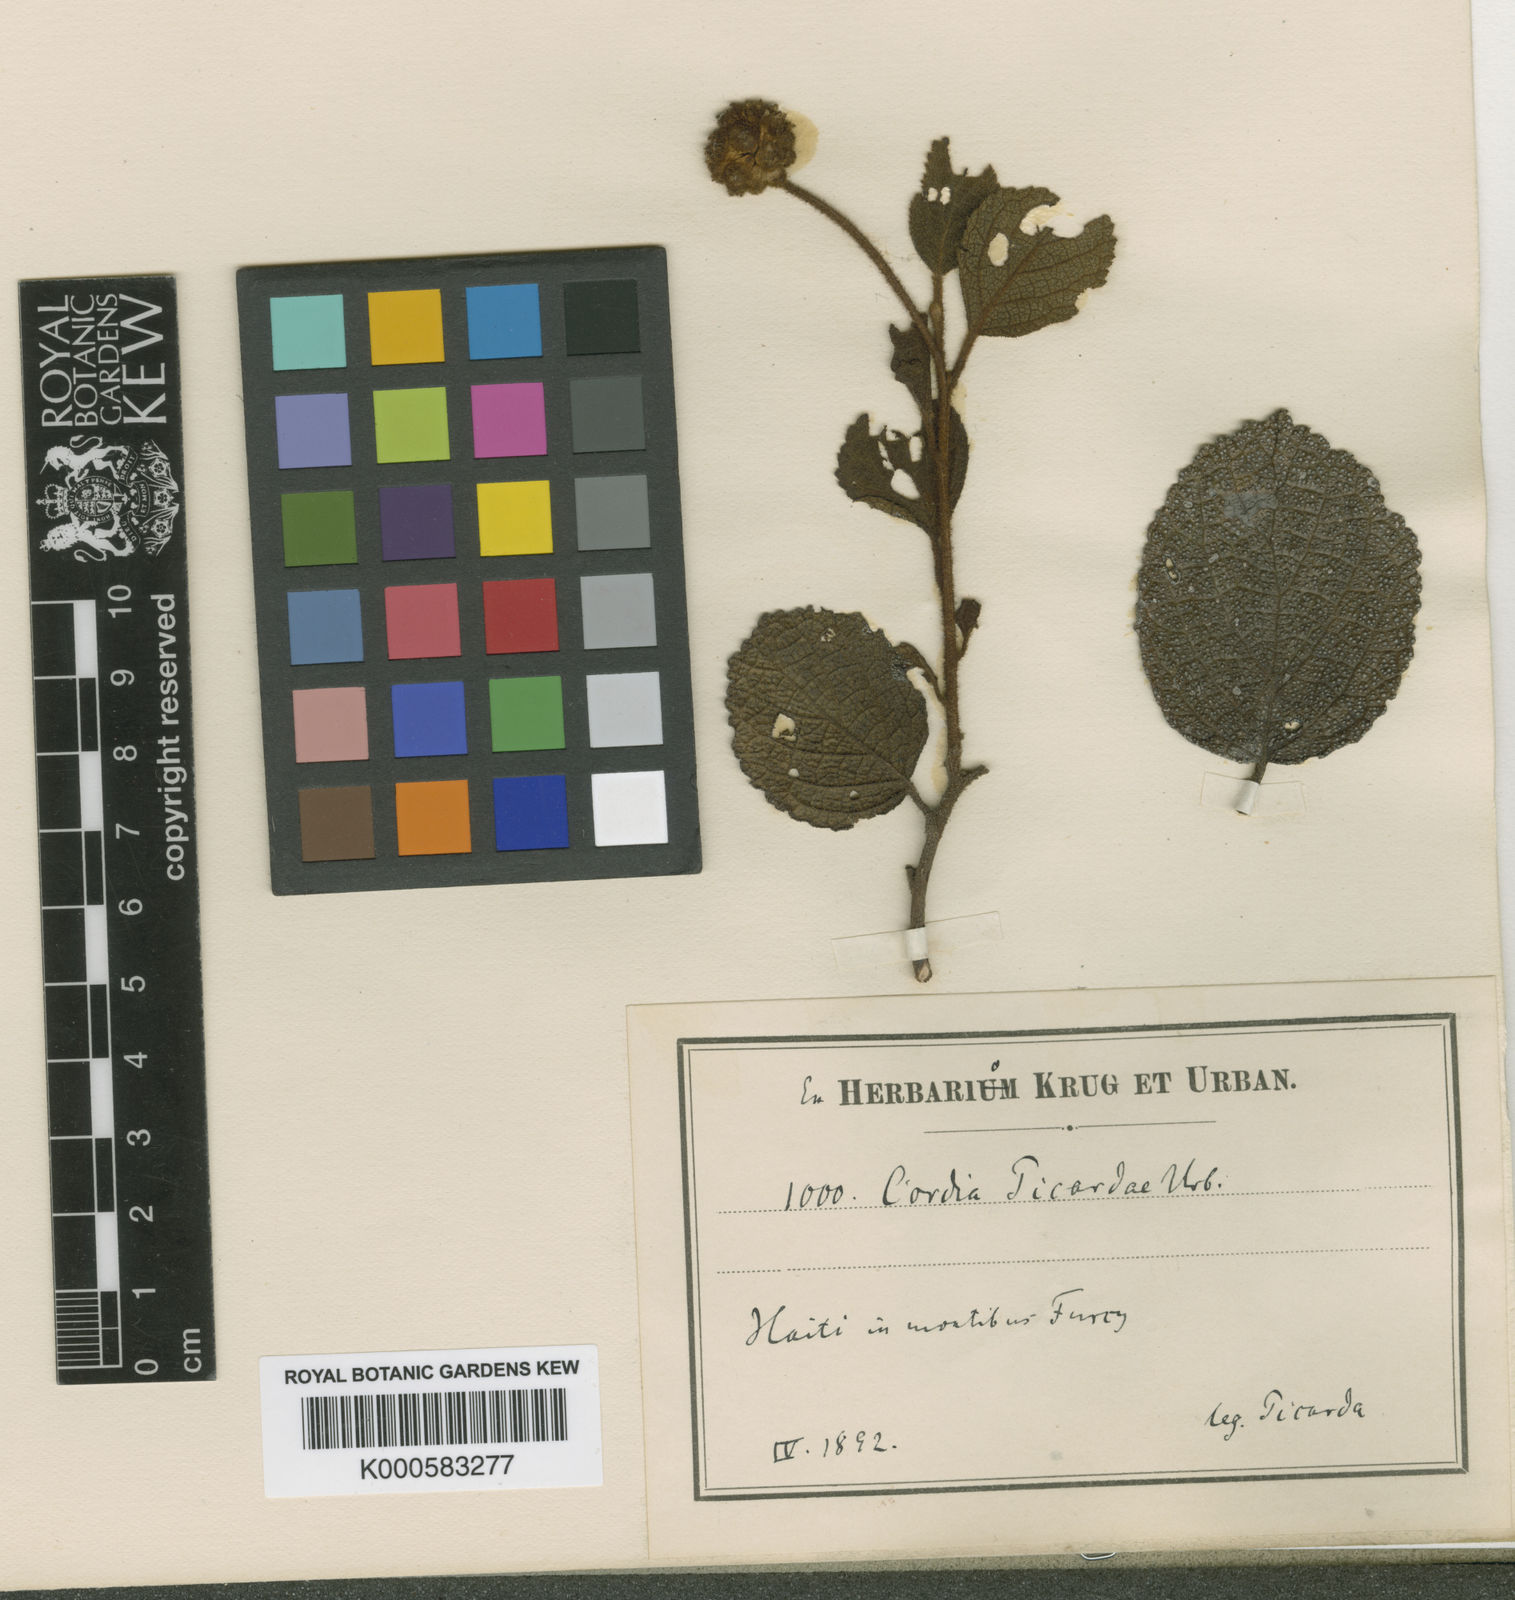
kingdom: Plantae
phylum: Tracheophyta
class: Magnoliopsida
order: Boraginales
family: Cordiaceae
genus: Varronia
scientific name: Varronia picardae
